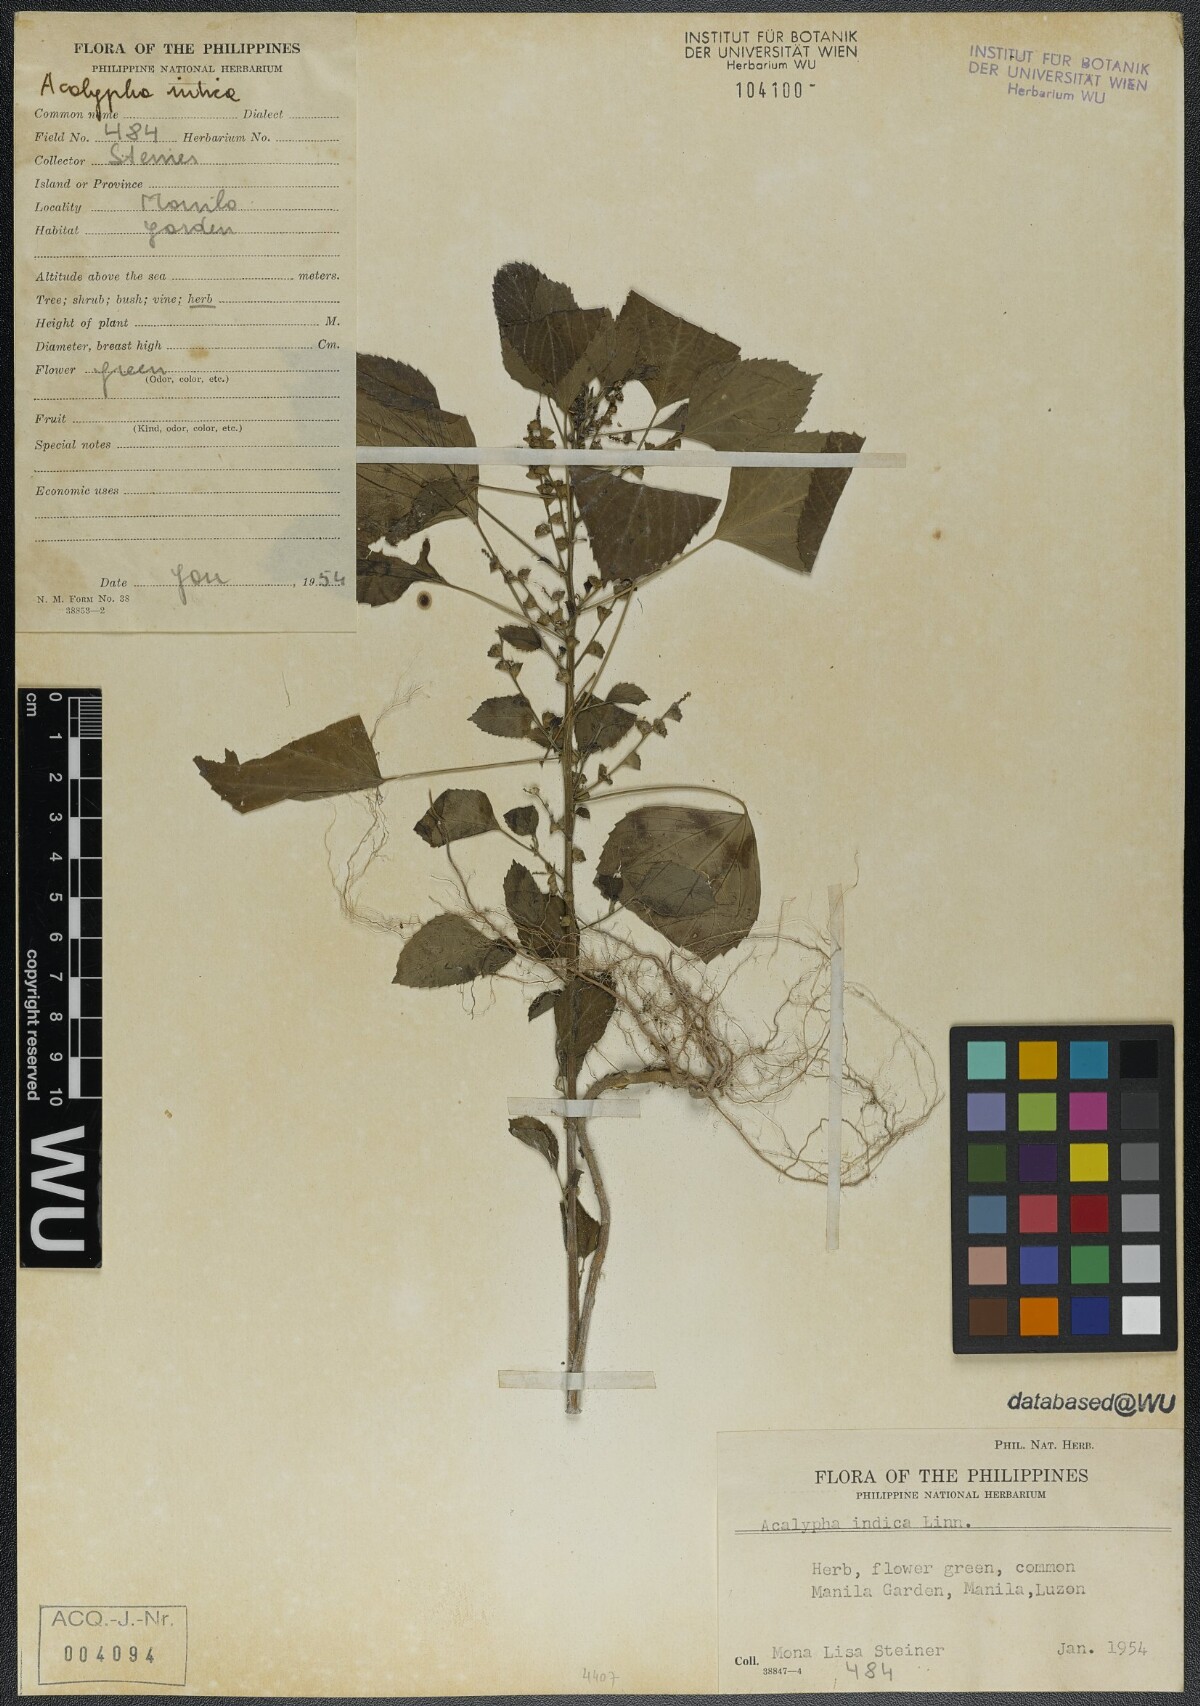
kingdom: Plantae
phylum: Tracheophyta
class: Magnoliopsida
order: Malpighiales
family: Euphorbiaceae
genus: Acalypha
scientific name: Acalypha indica
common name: Indian acalypha
